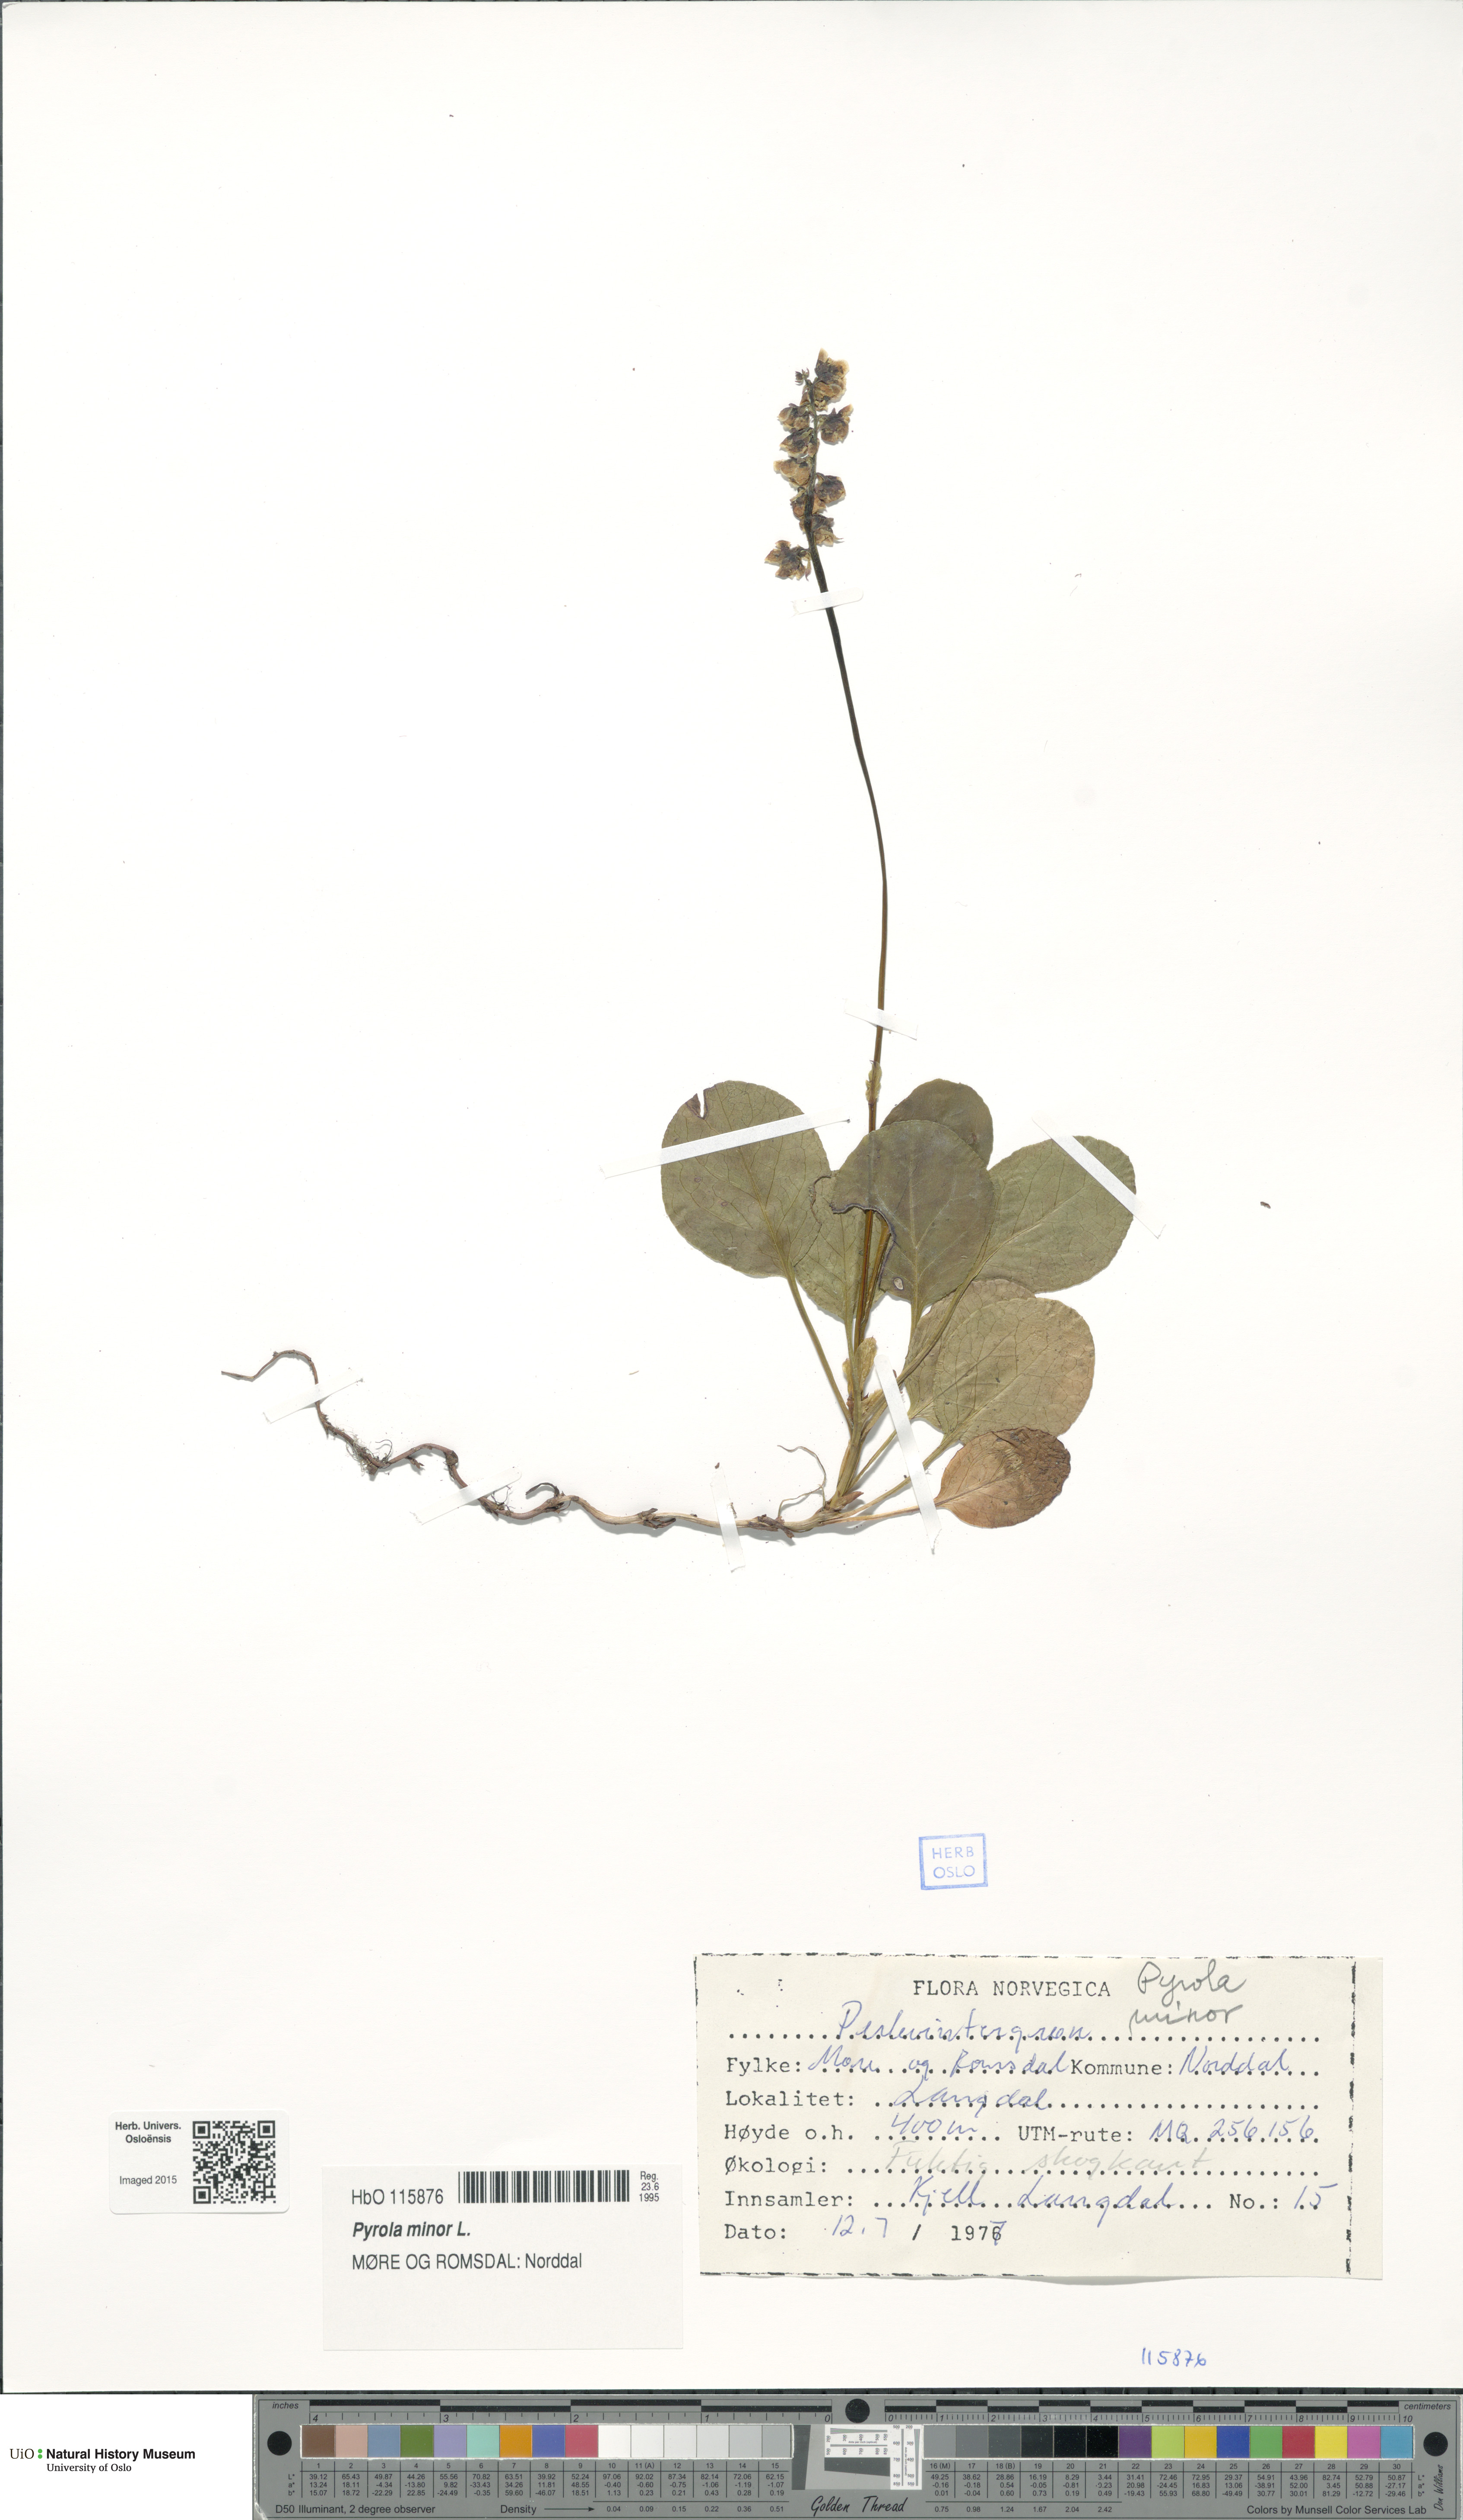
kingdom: Plantae
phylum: Tracheophyta
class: Magnoliopsida
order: Ericales
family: Ericaceae
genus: Pyrola
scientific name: Pyrola minor
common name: Common wintergreen
